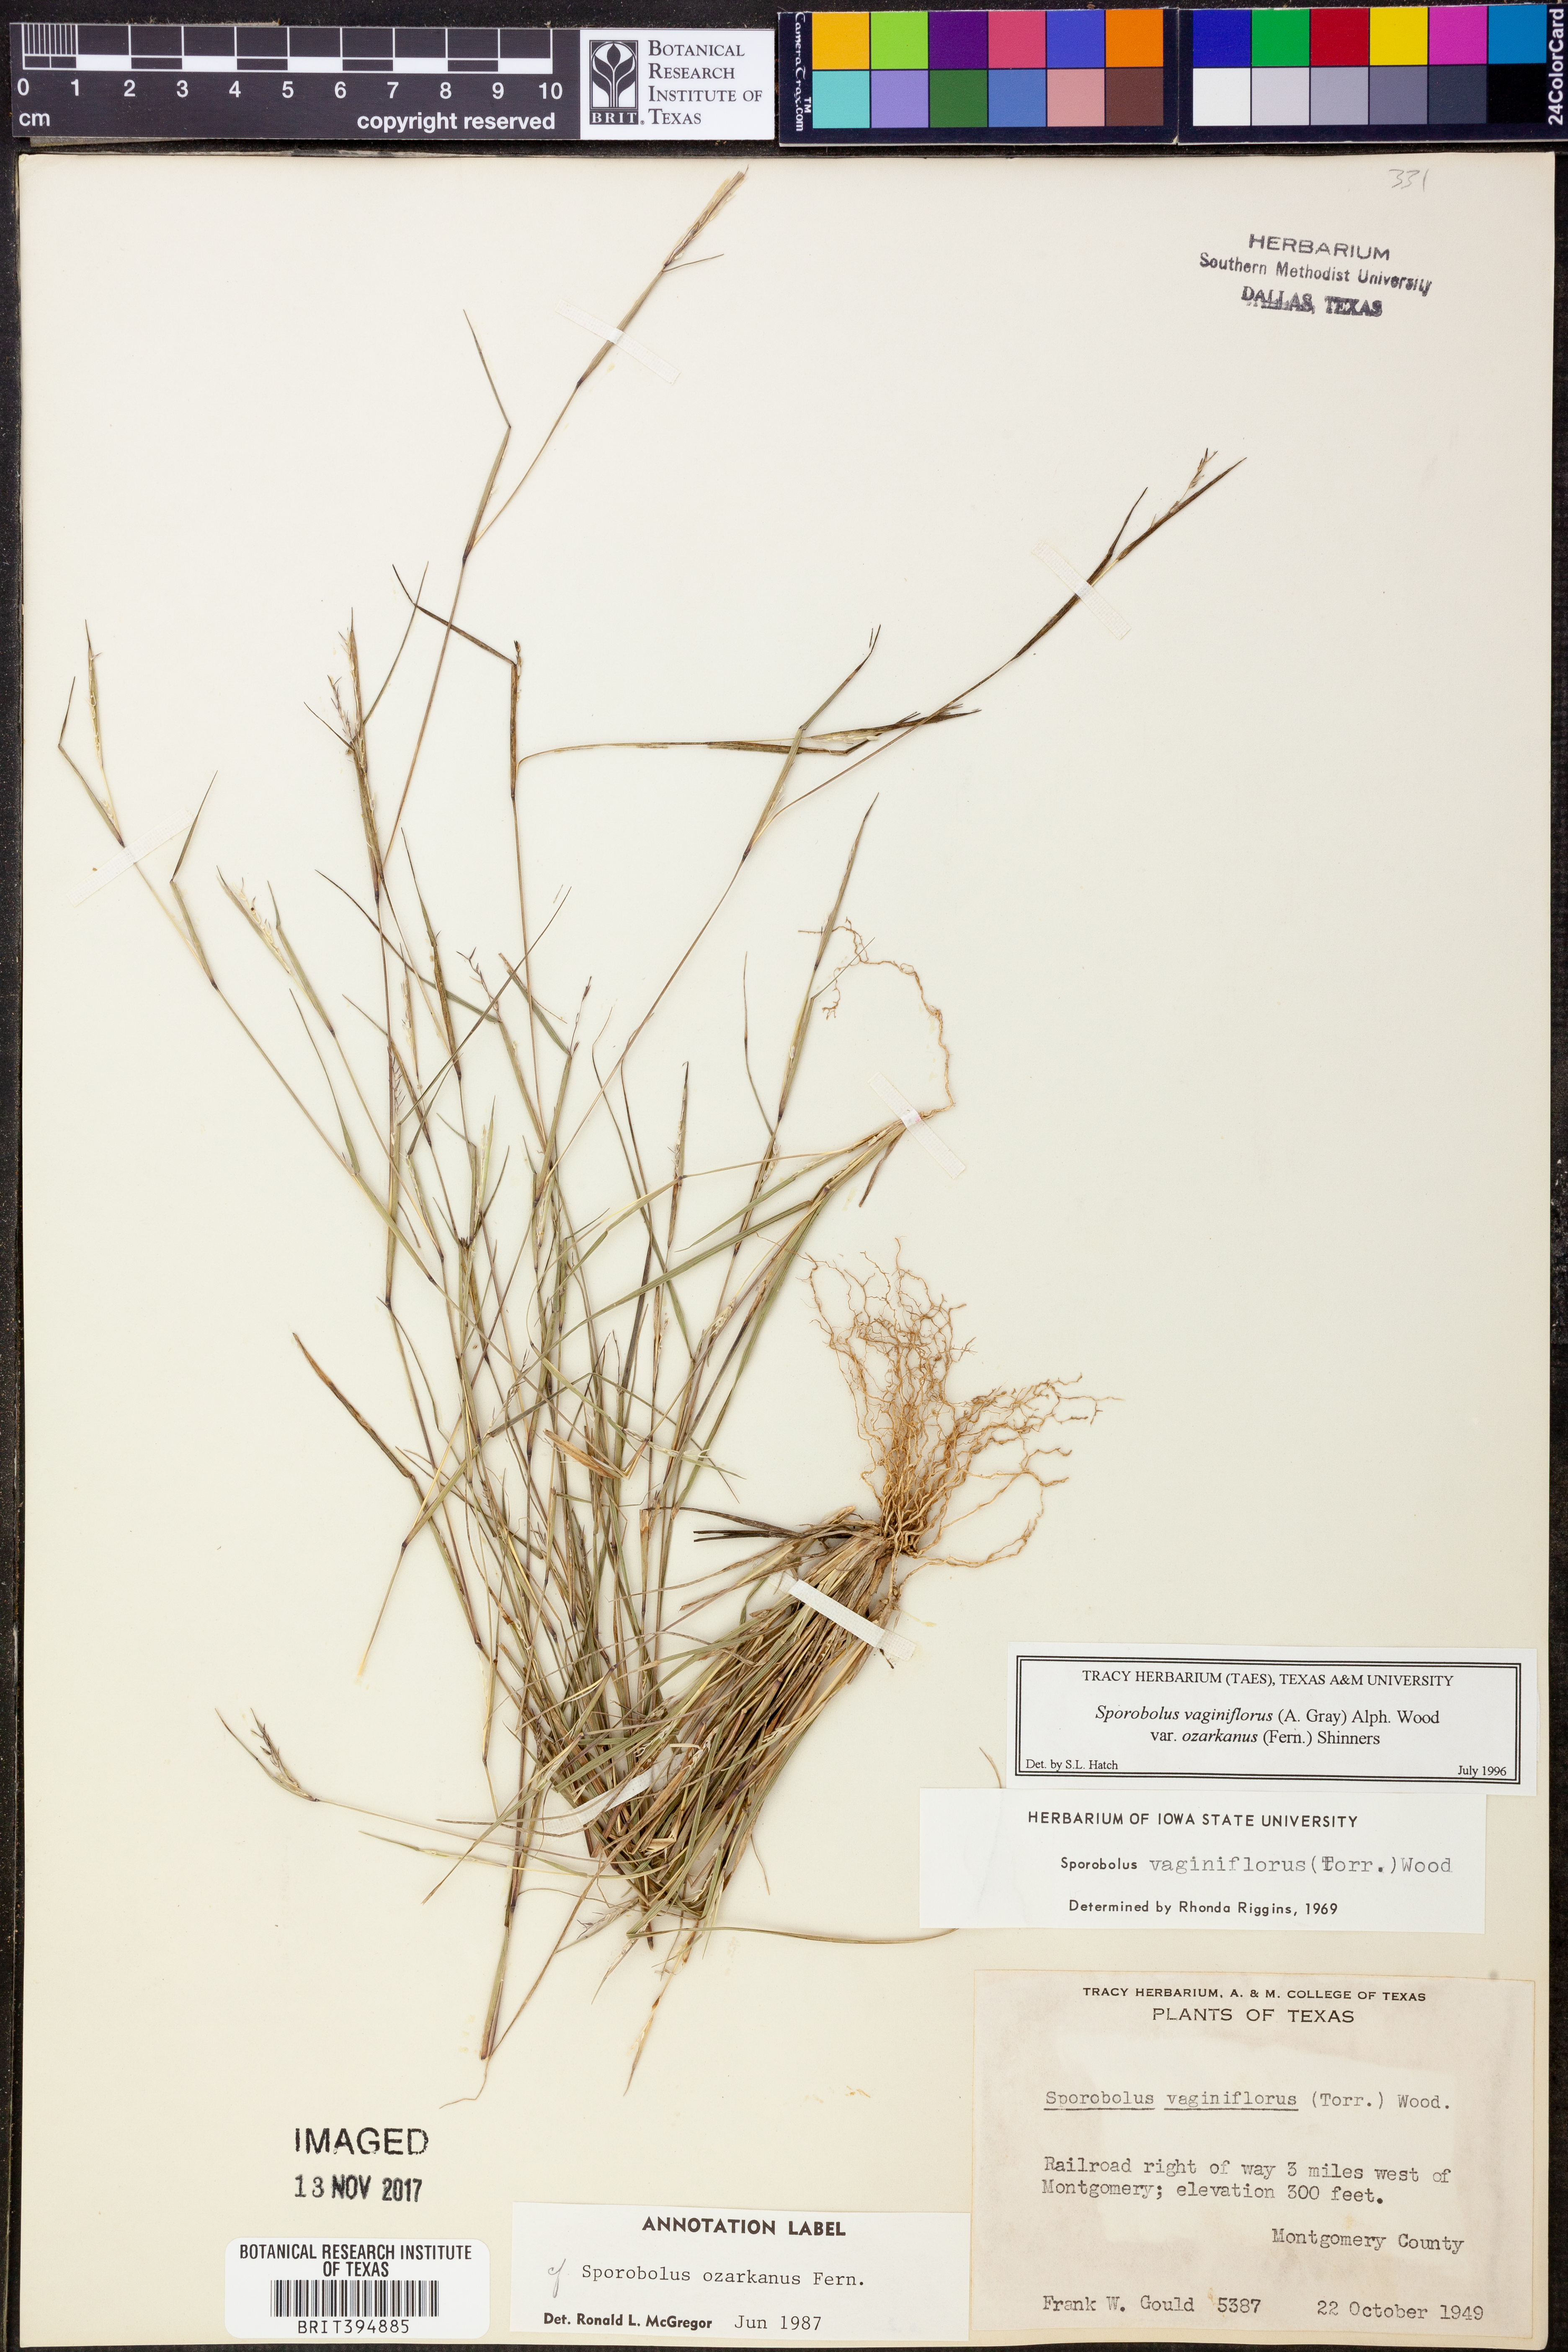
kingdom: Plantae
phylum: Tracheophyta
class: Liliopsida
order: Poales
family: Poaceae
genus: Sporobolus
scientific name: Sporobolus neglectus
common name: Annual dropseed
